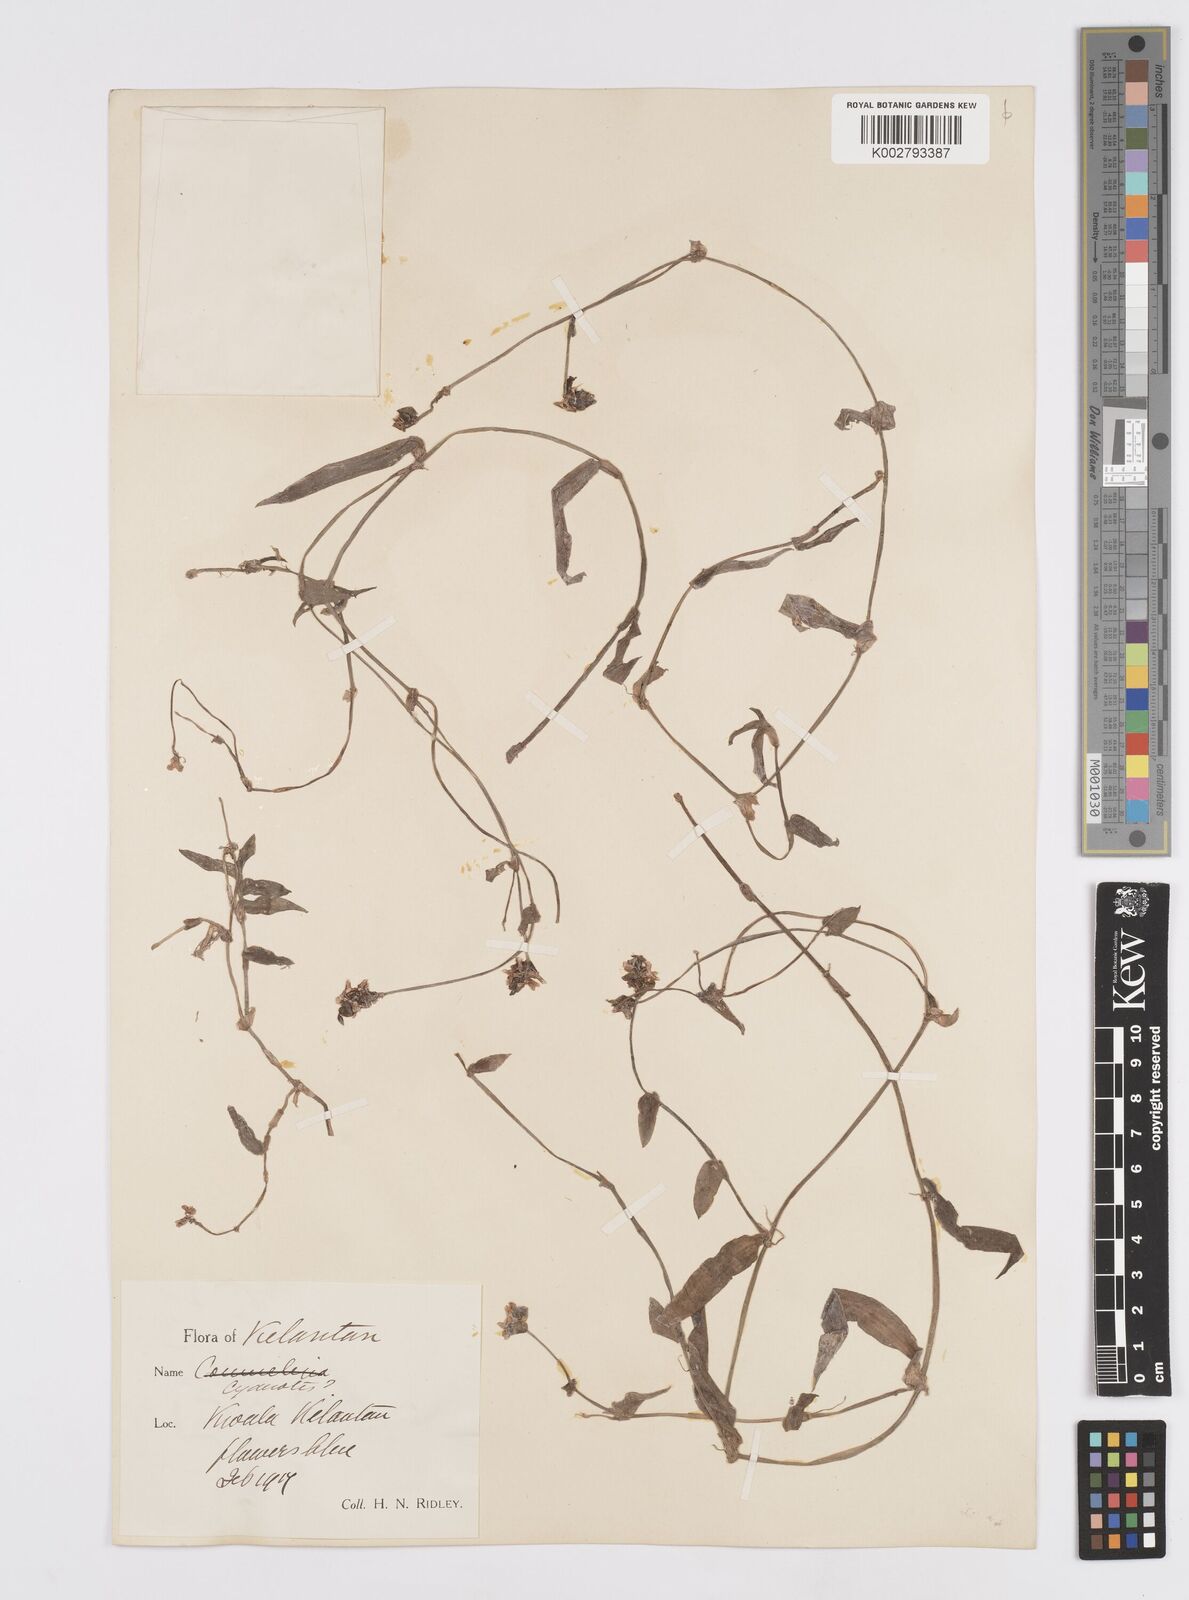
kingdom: Plantae
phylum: Tracheophyta
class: Liliopsida
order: Commelinales
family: Commelinaceae
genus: Murdannia
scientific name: Murdannia
